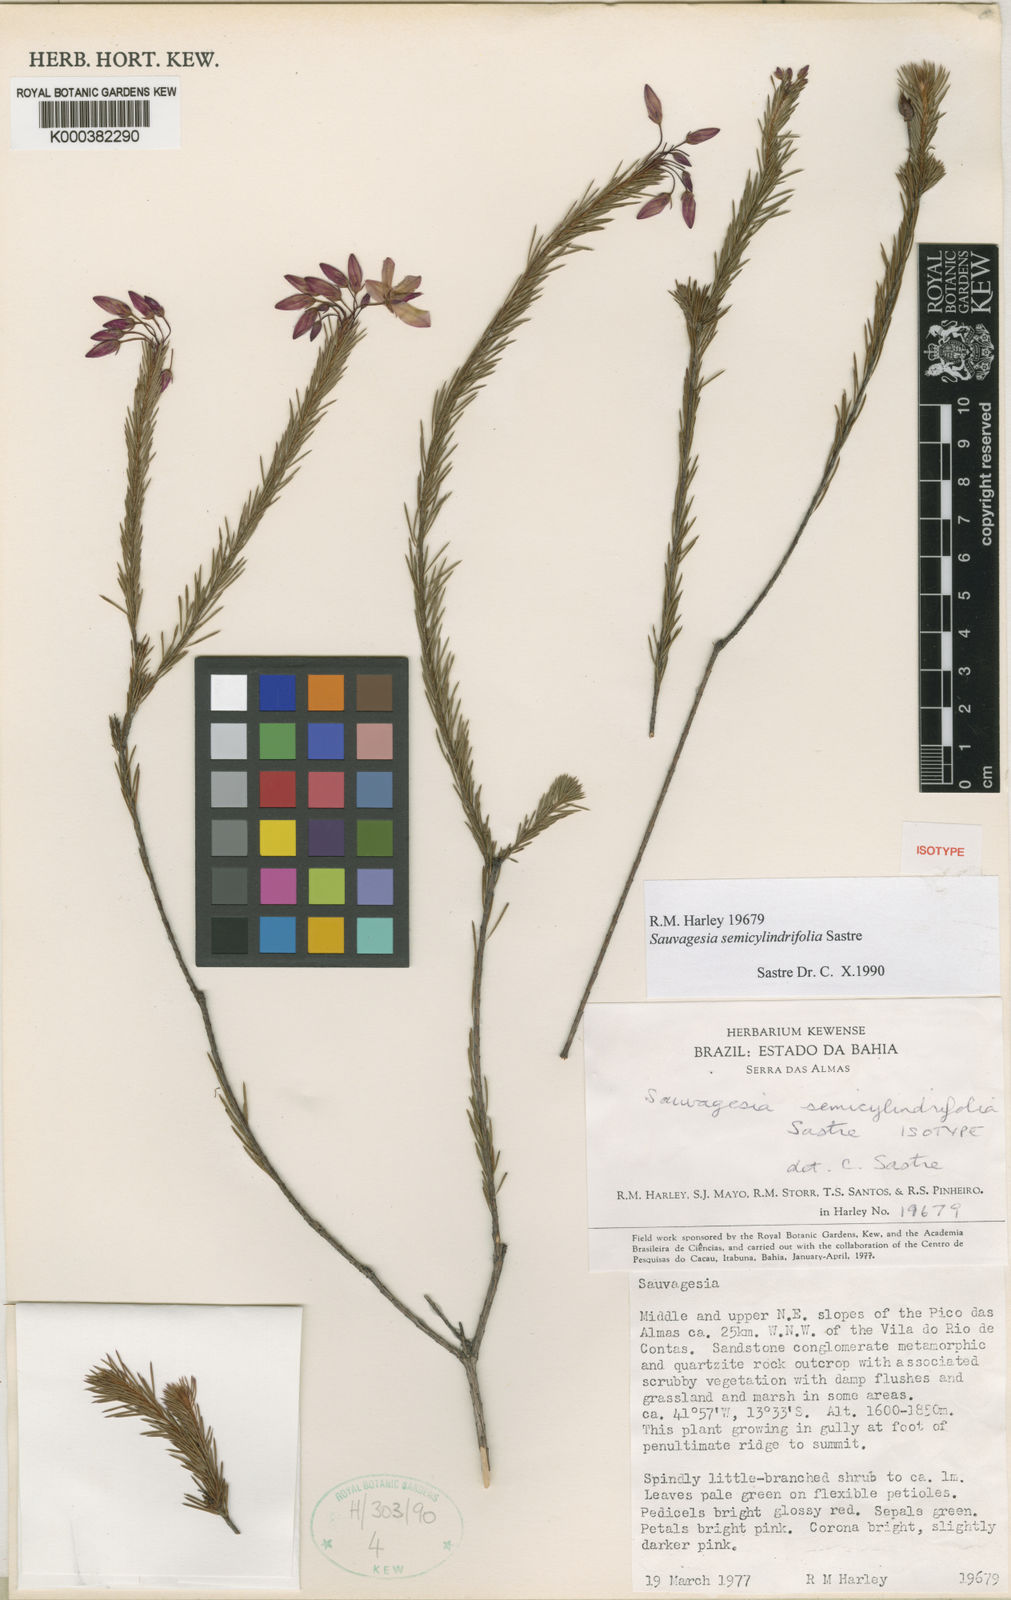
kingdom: Plantae
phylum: Tracheophyta
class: Magnoliopsida
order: Malpighiales
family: Ochnaceae
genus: Sauvagesia
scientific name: Sauvagesia semicylindrifolia
